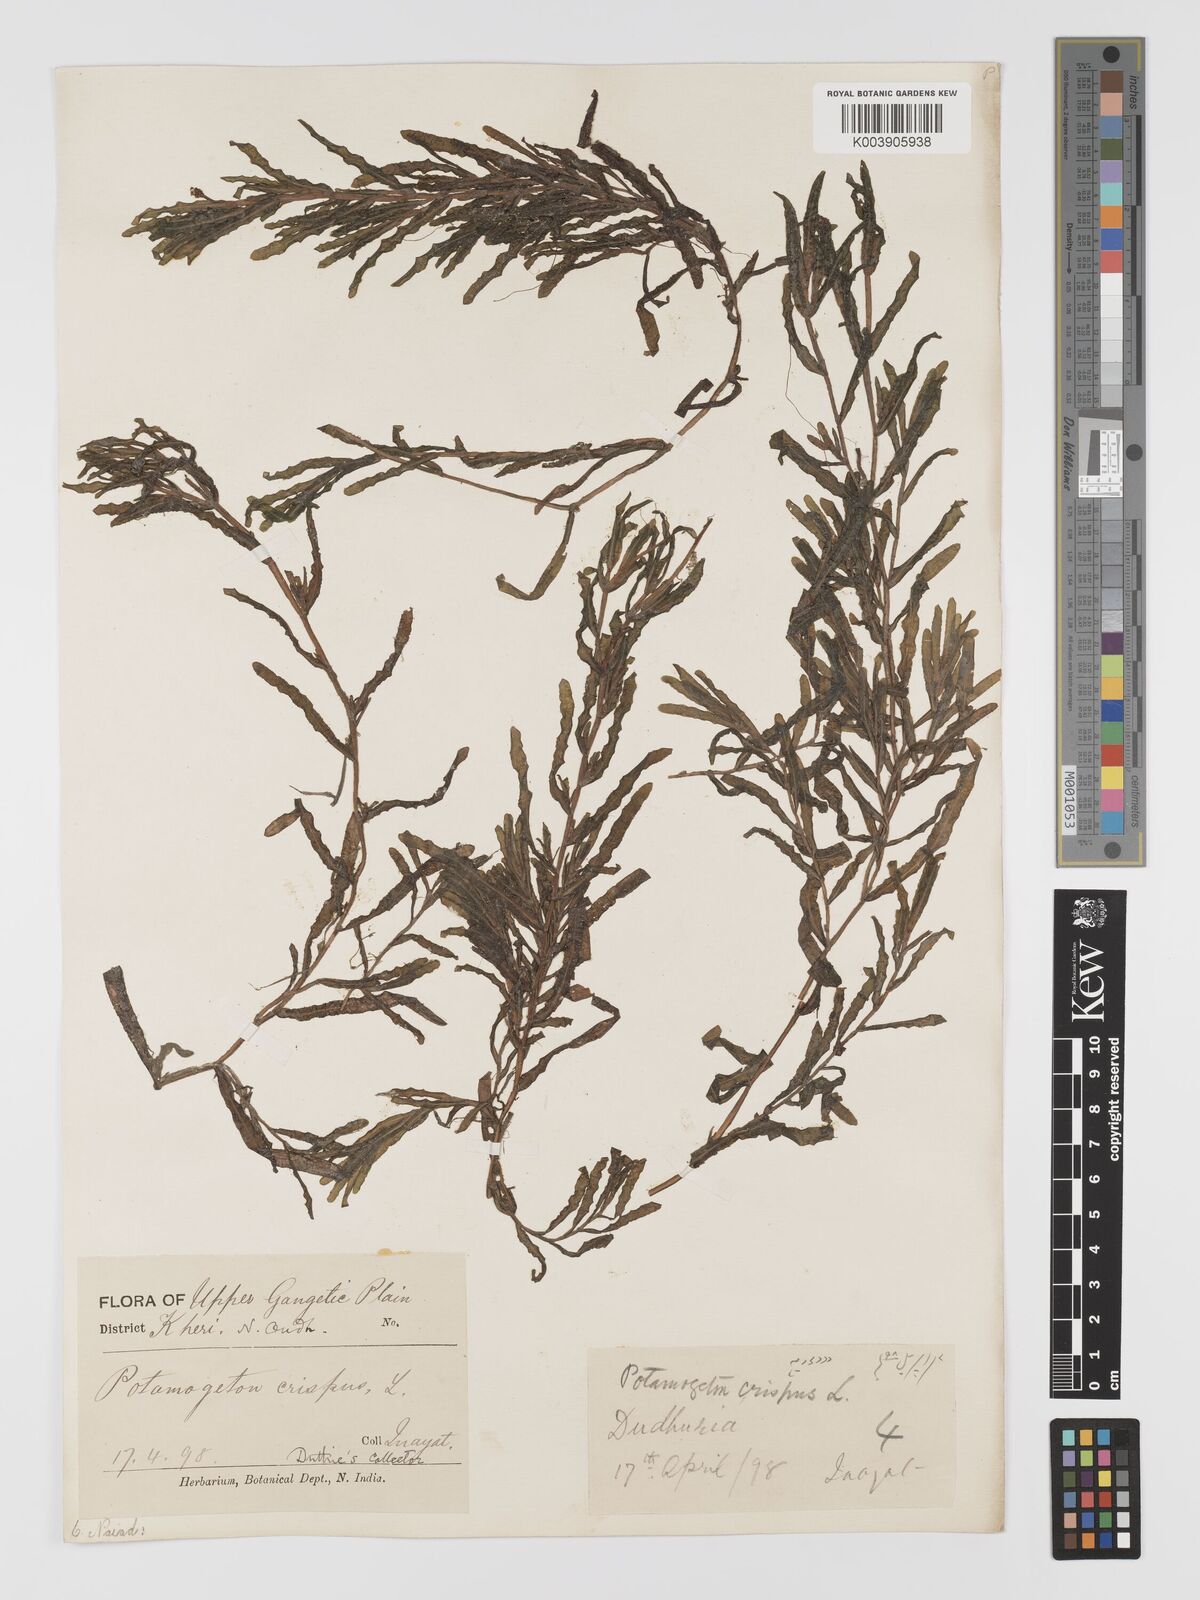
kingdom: Plantae
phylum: Tracheophyta
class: Liliopsida
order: Alismatales
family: Potamogetonaceae
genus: Potamogeton
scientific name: Potamogeton crispus
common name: Curled pondweed
